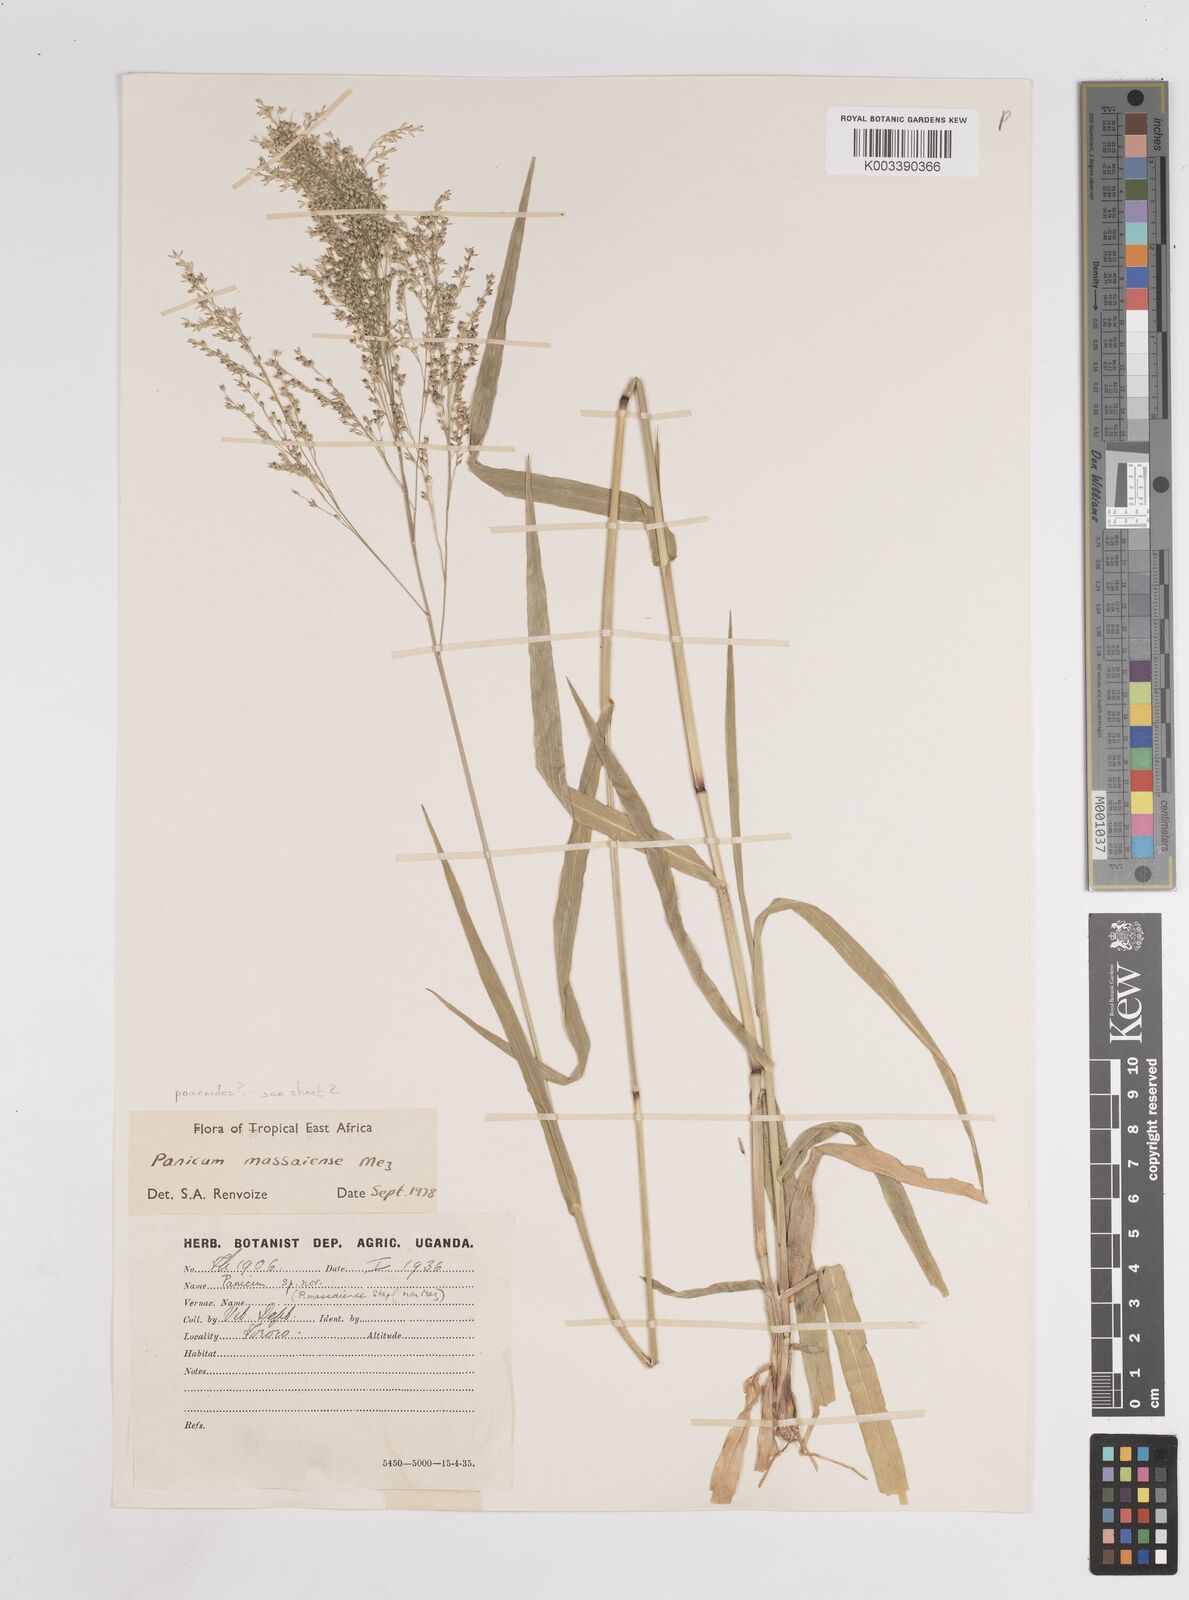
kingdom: Plantae
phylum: Tracheophyta
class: Liliopsida
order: Poales
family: Poaceae
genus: Panicum
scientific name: Panicum
